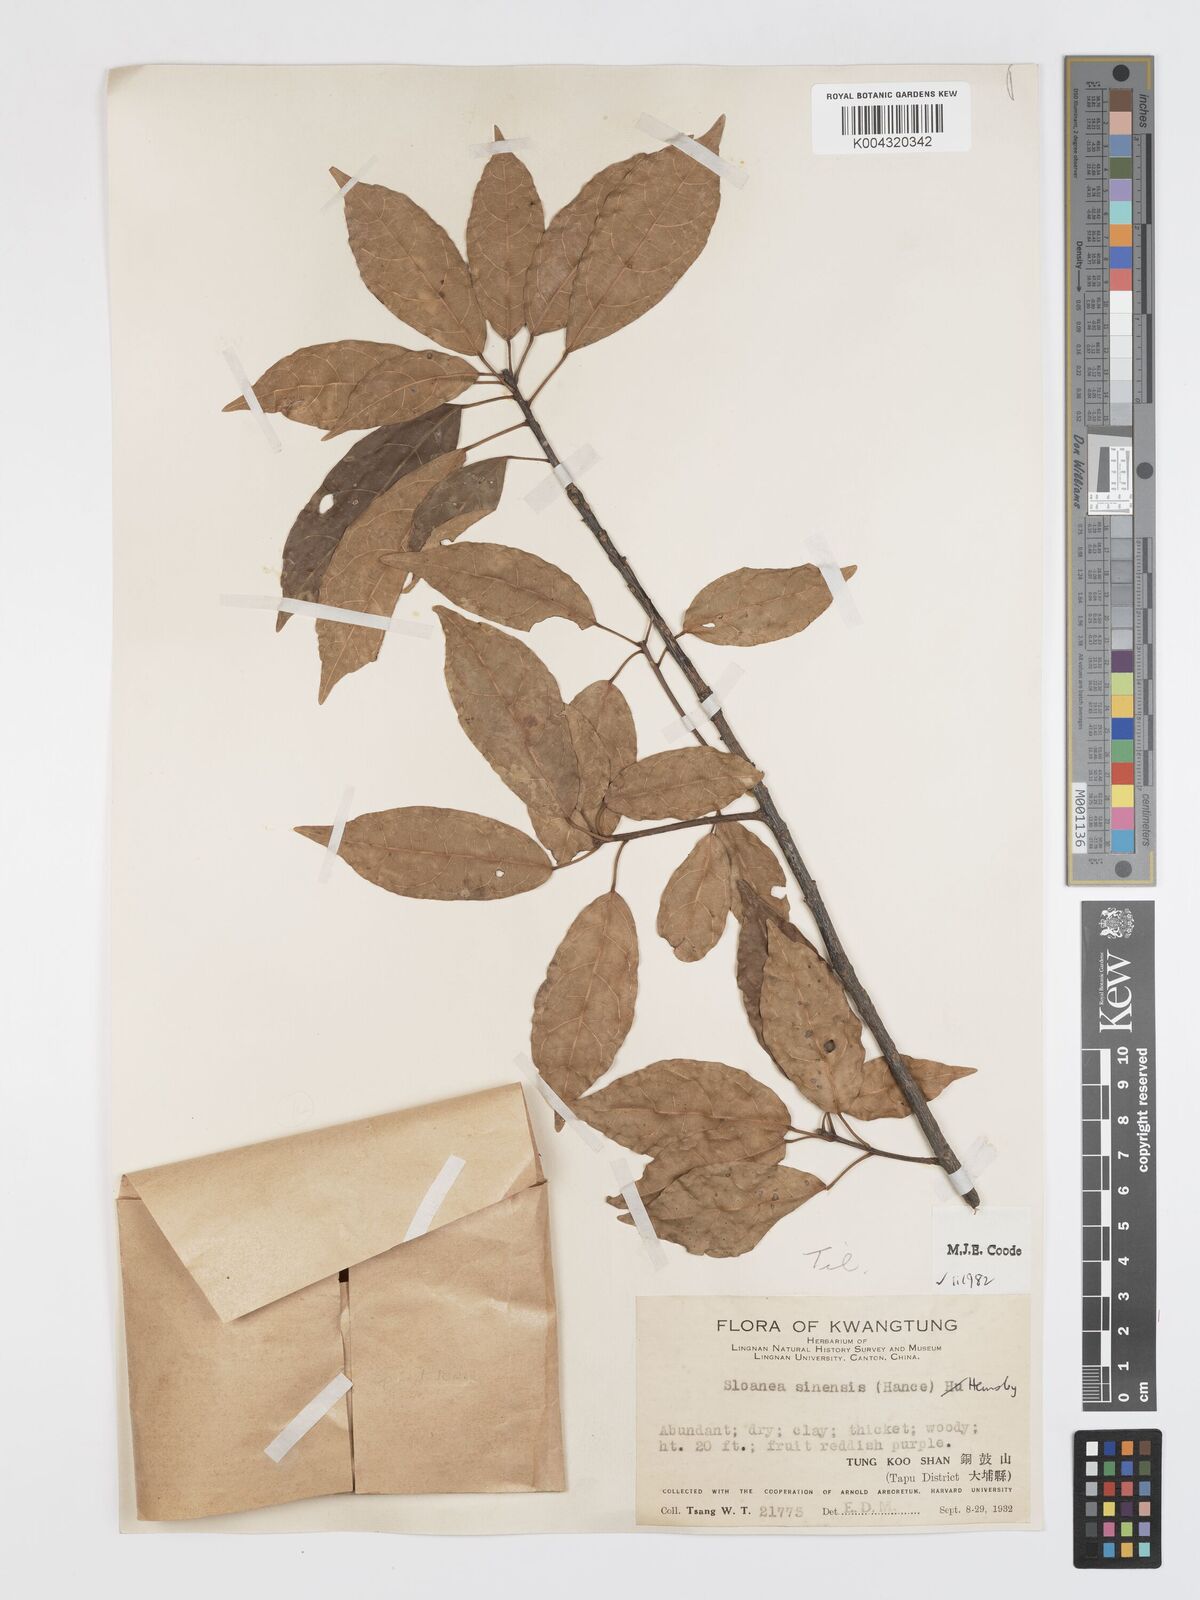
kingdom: Plantae
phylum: Tracheophyta
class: Magnoliopsida
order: Oxalidales
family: Elaeocarpaceae
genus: Sloanea
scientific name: Sloanea sinensis
